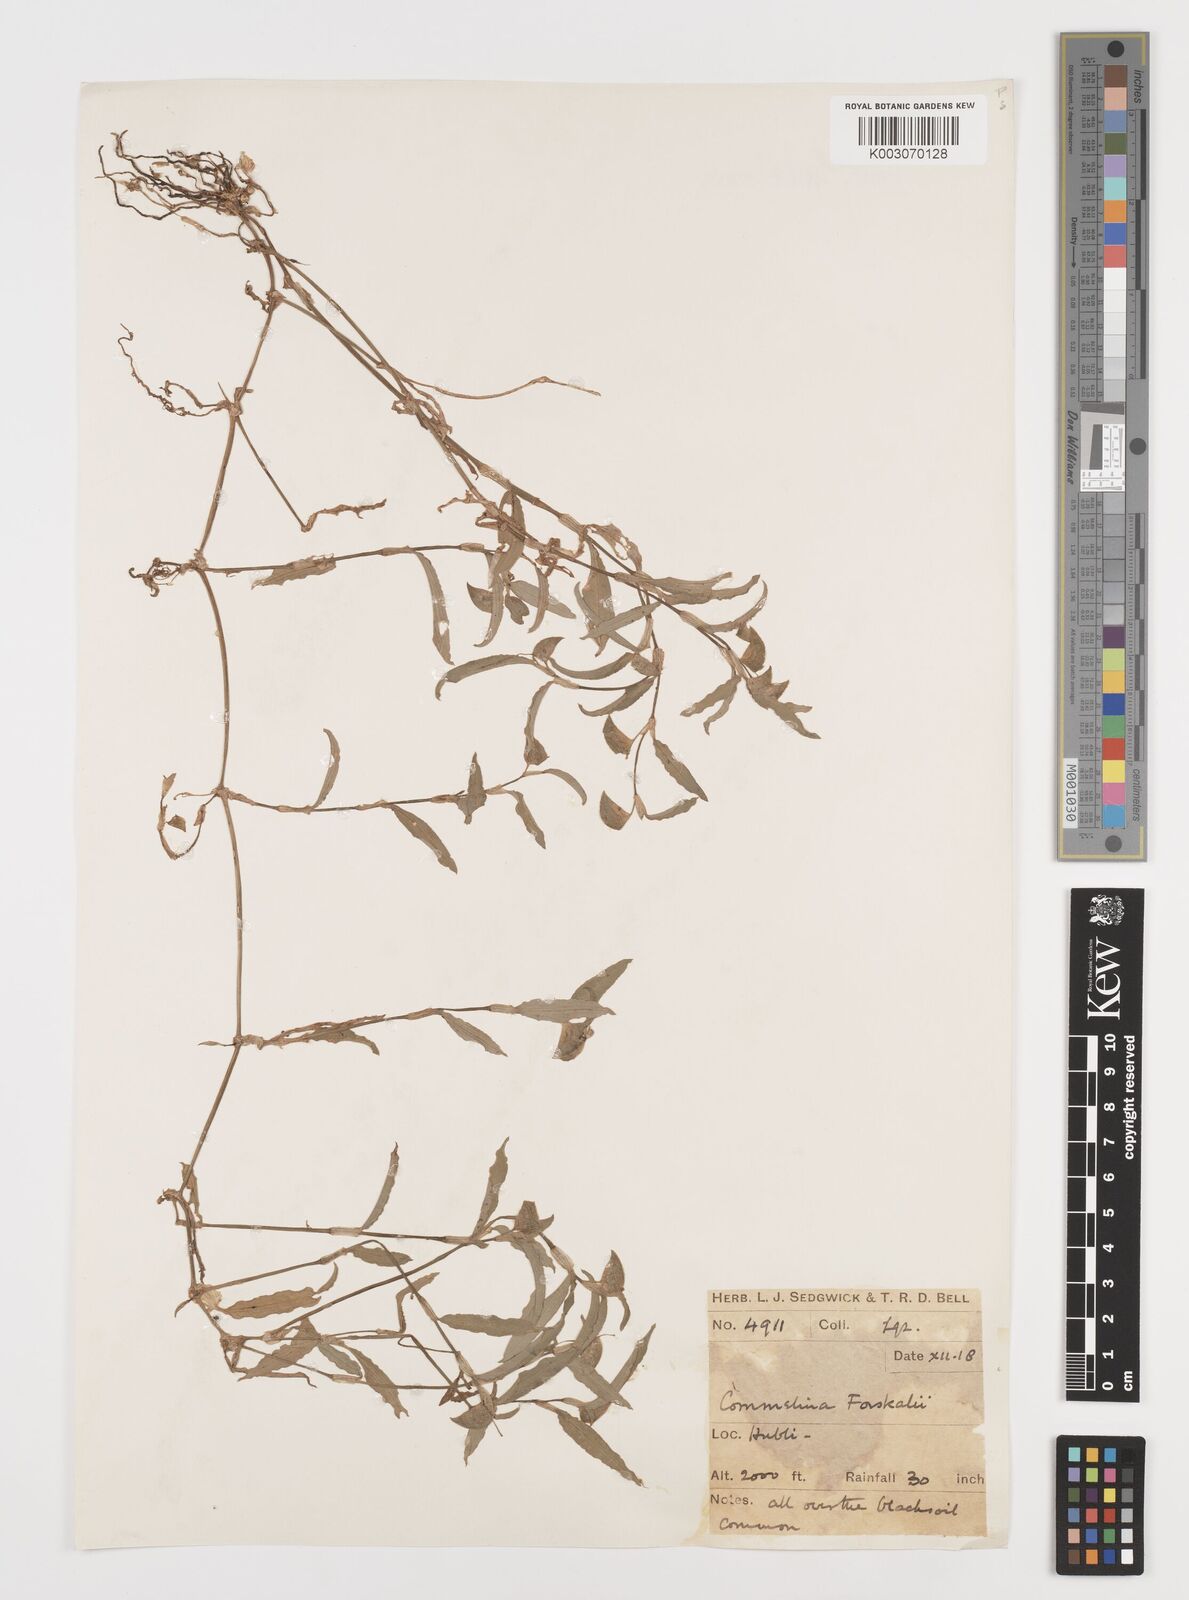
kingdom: Plantae
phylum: Tracheophyta
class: Liliopsida
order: Commelinales
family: Commelinaceae
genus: Commelina
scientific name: Commelina forskaolii
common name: Rat's ear
